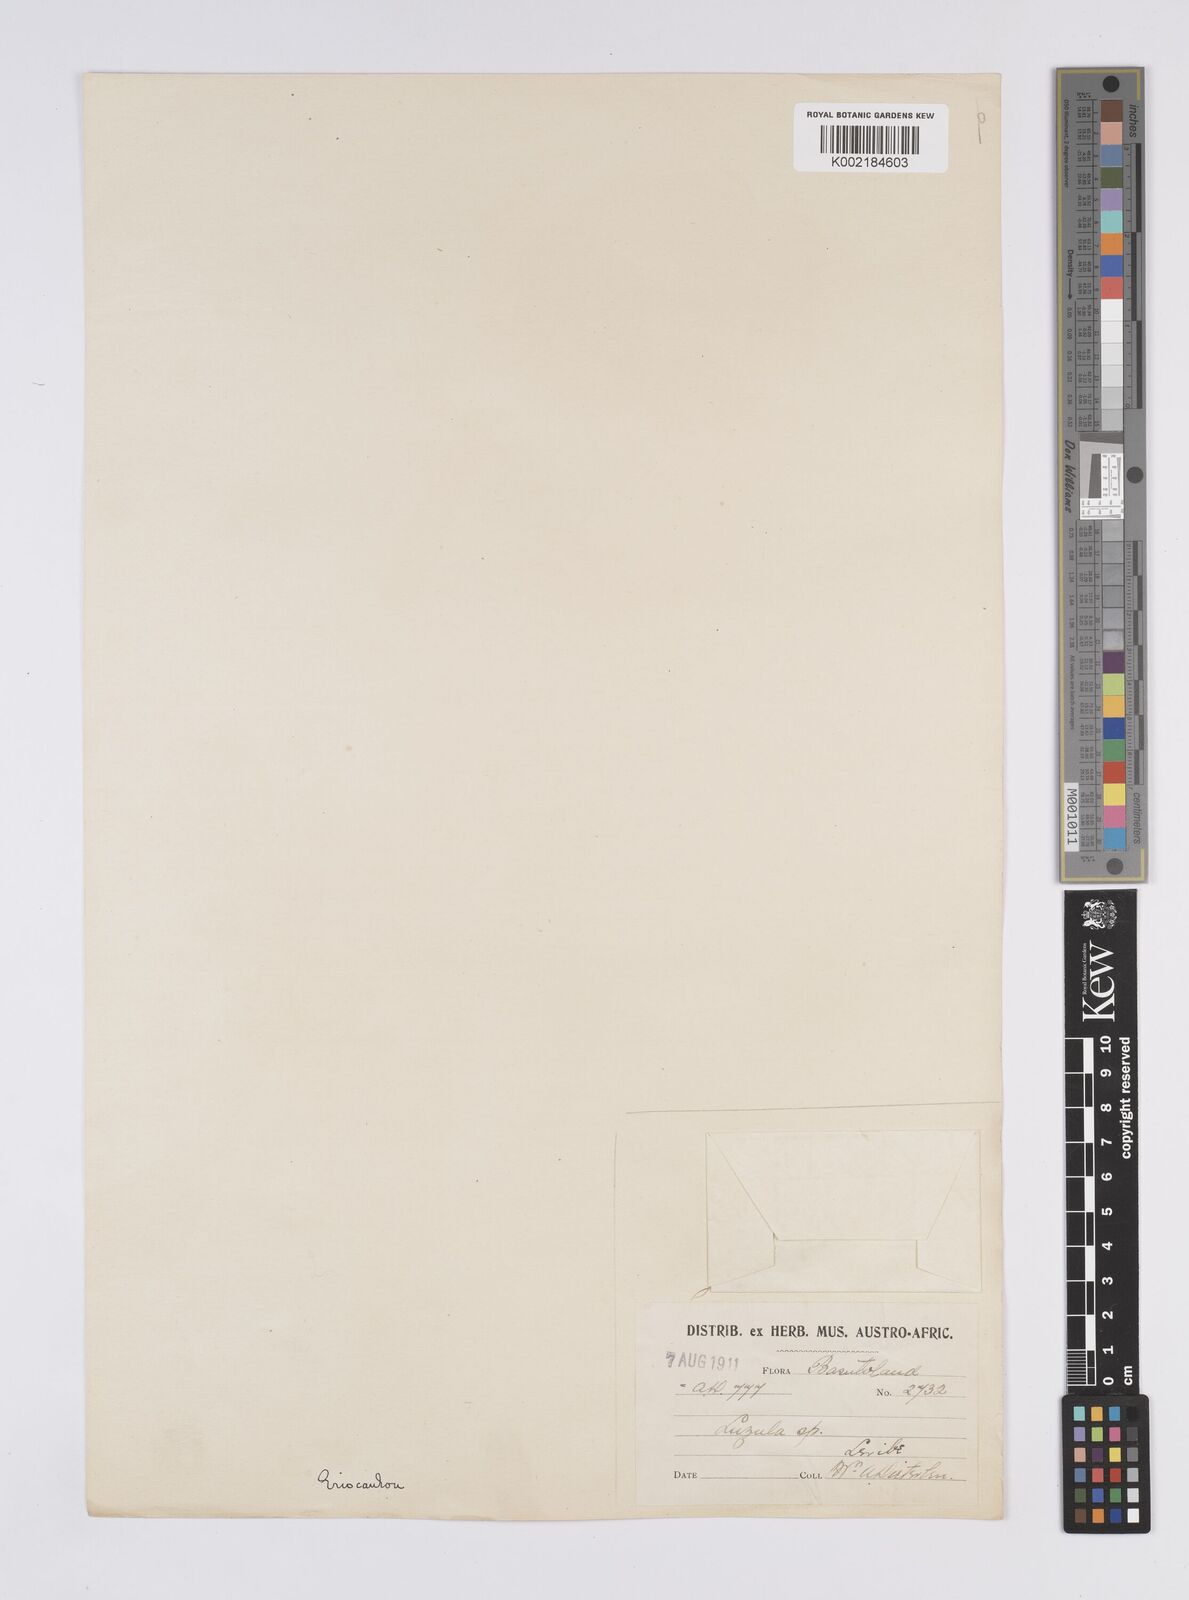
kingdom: Plantae
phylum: Tracheophyta
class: Liliopsida
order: Poales
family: Eriocaulaceae
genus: Eriocaulon
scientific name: Eriocaulon
